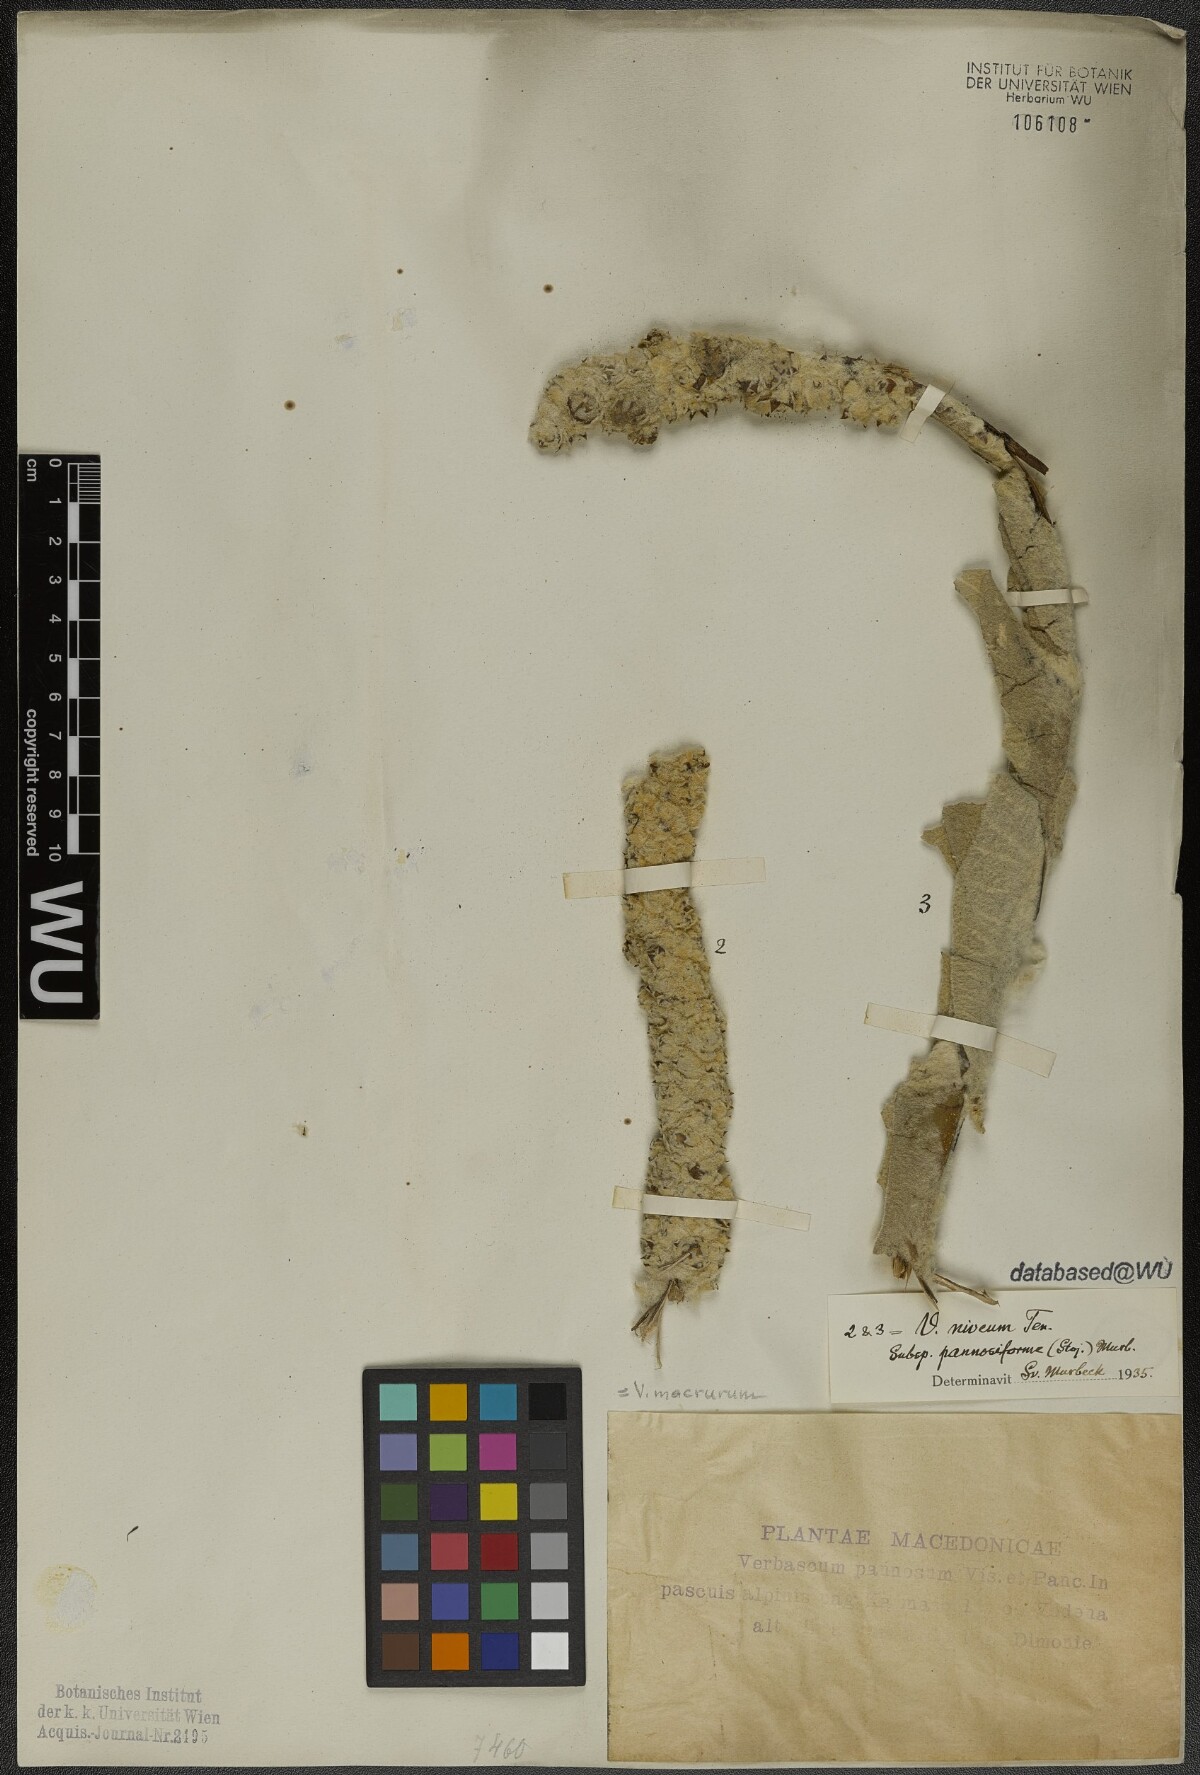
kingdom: Plantae
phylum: Tracheophyta
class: Magnoliopsida
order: Lamiales
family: Scrophulariaceae
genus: Verbascum
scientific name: Verbascum macrurum
